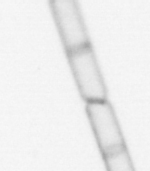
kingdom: Chromista
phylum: Ochrophyta
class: Bacillariophyceae
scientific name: Bacillariophyceae
